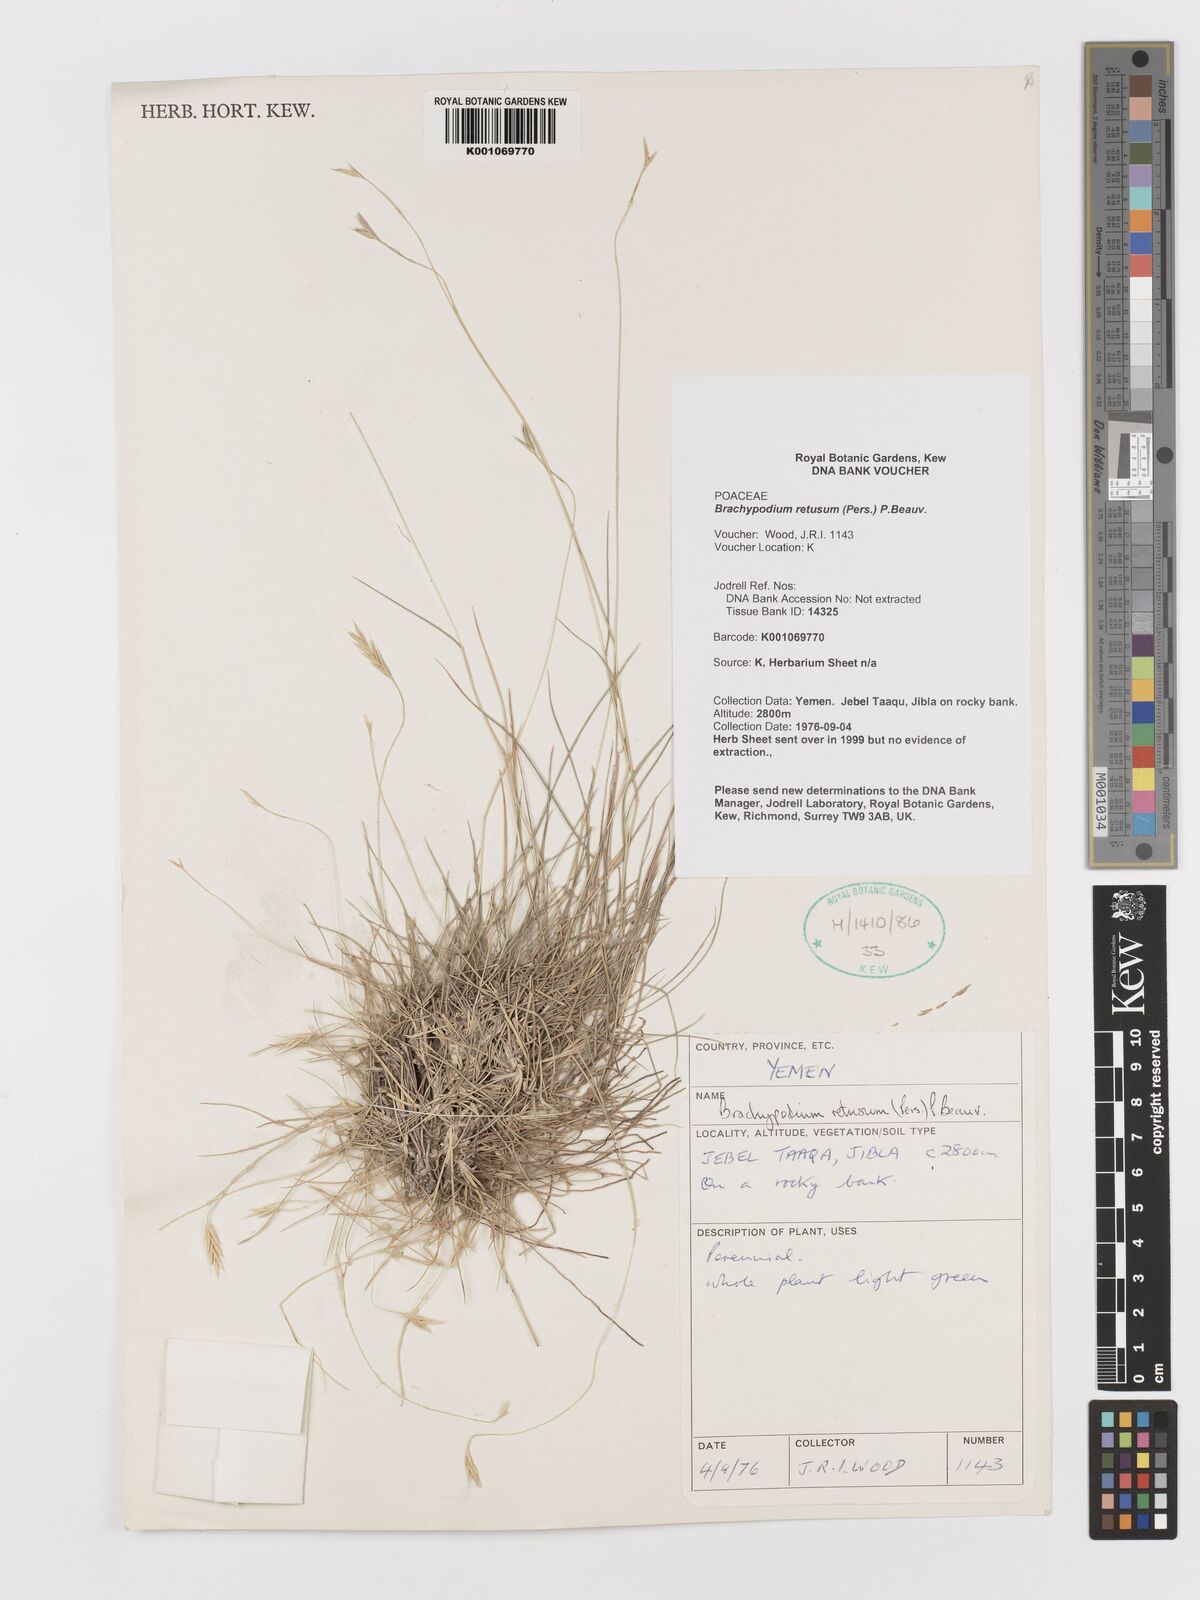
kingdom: Plantae
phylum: Tracheophyta
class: Liliopsida
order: Poales
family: Poaceae
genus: Brachypodium
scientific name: Brachypodium retusum
